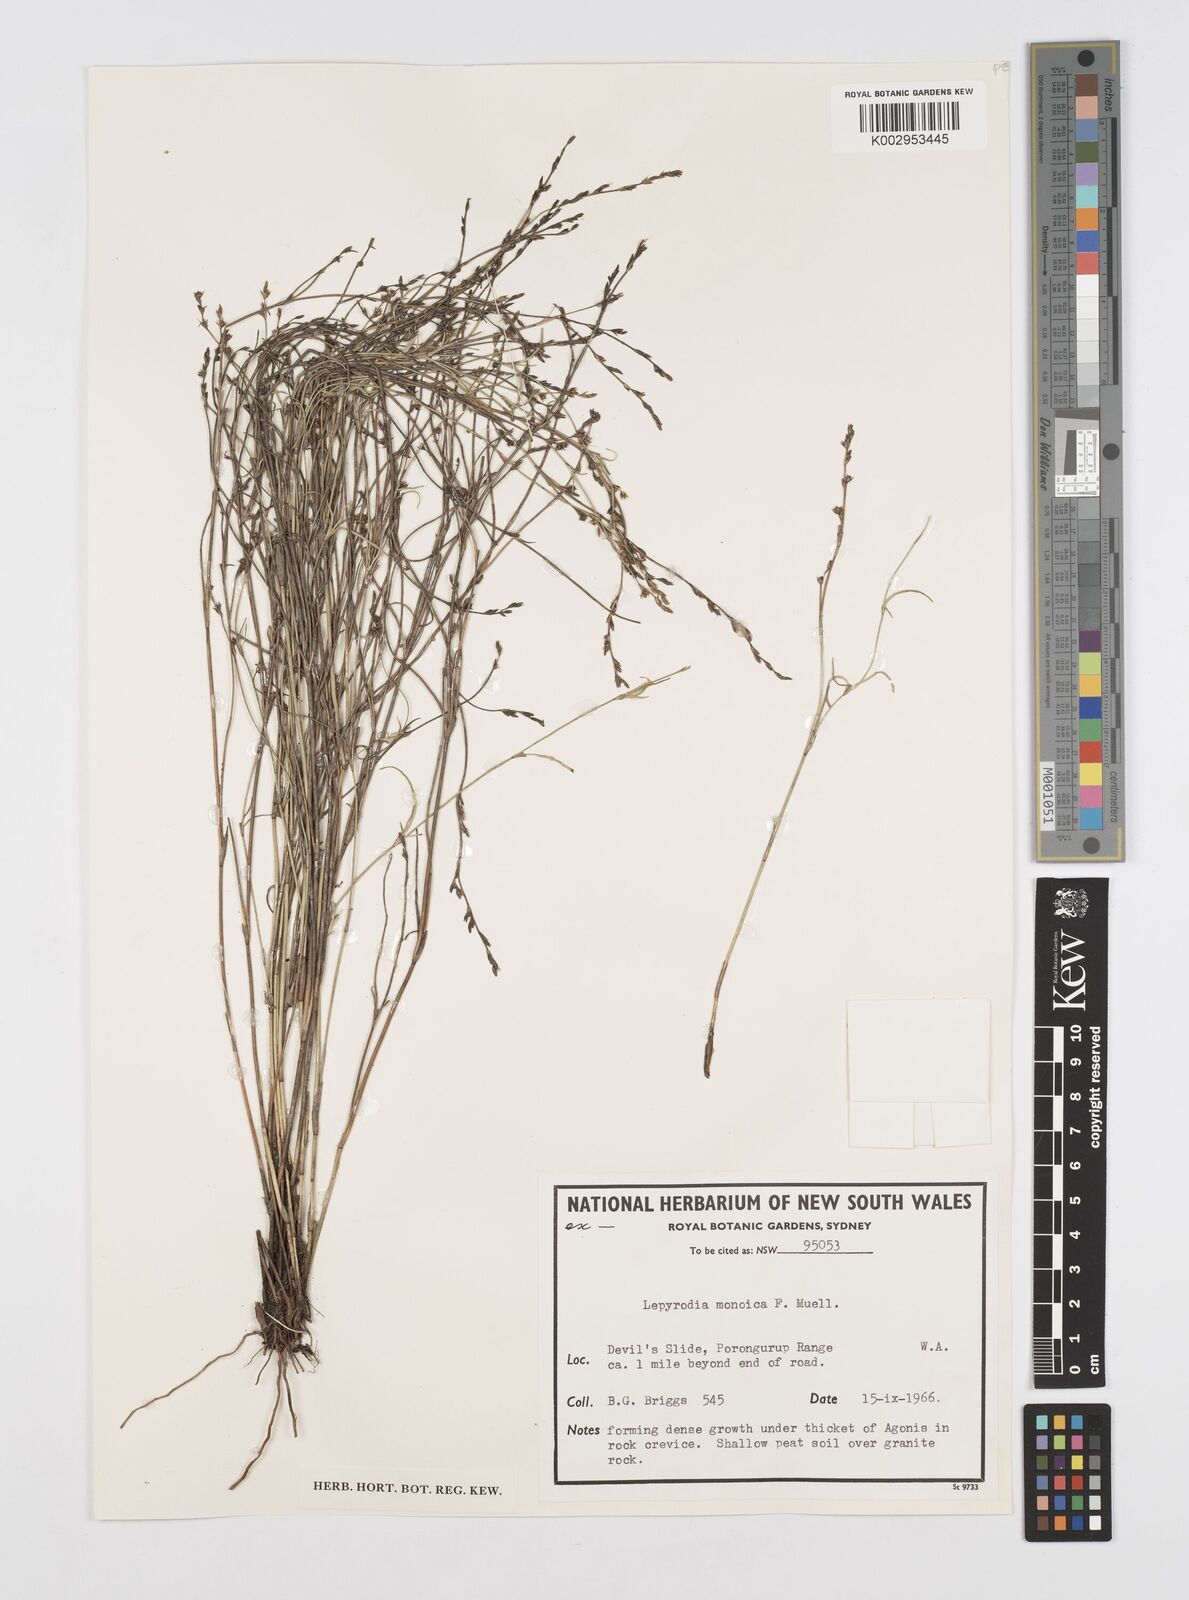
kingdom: Plantae
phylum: Tracheophyta
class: Liliopsida
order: Poales
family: Restionaceae
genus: Lepyrodia
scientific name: Lepyrodia monoica
